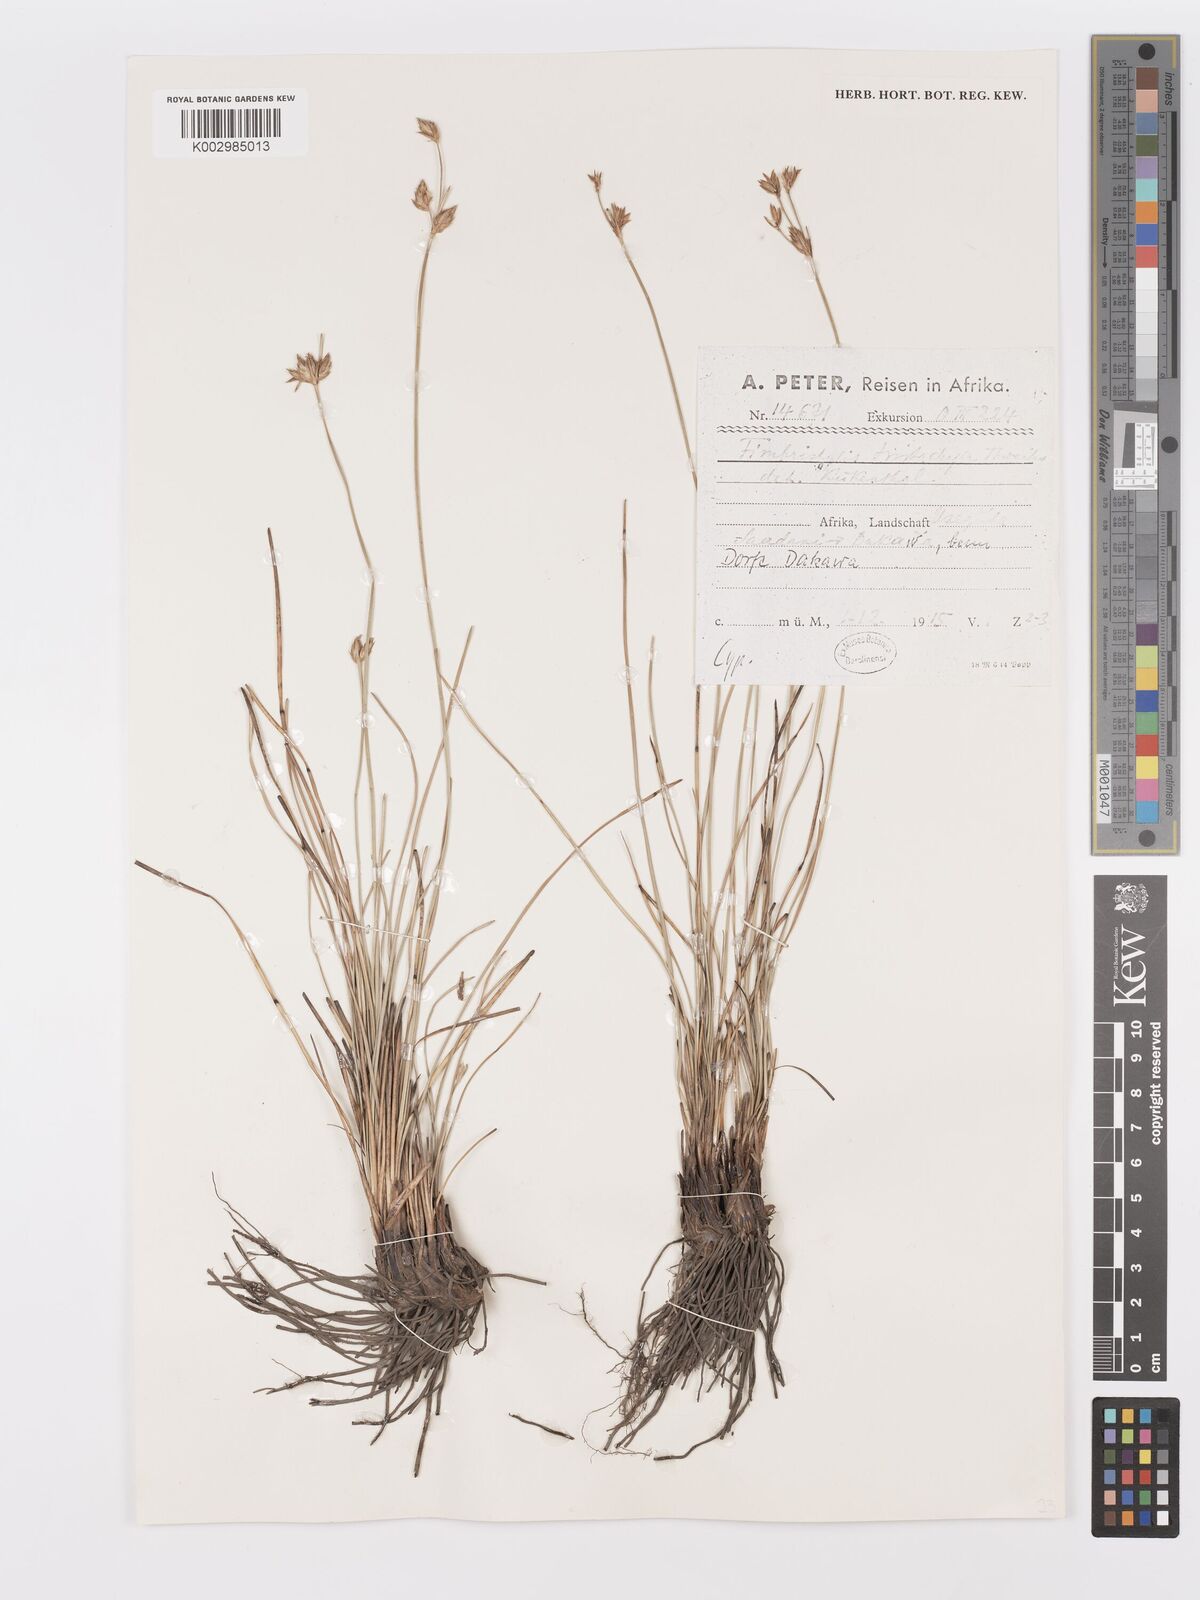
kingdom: Plantae
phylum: Tracheophyta
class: Liliopsida
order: Poales
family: Cyperaceae
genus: Abildgaardia
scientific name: Abildgaardia triflora
